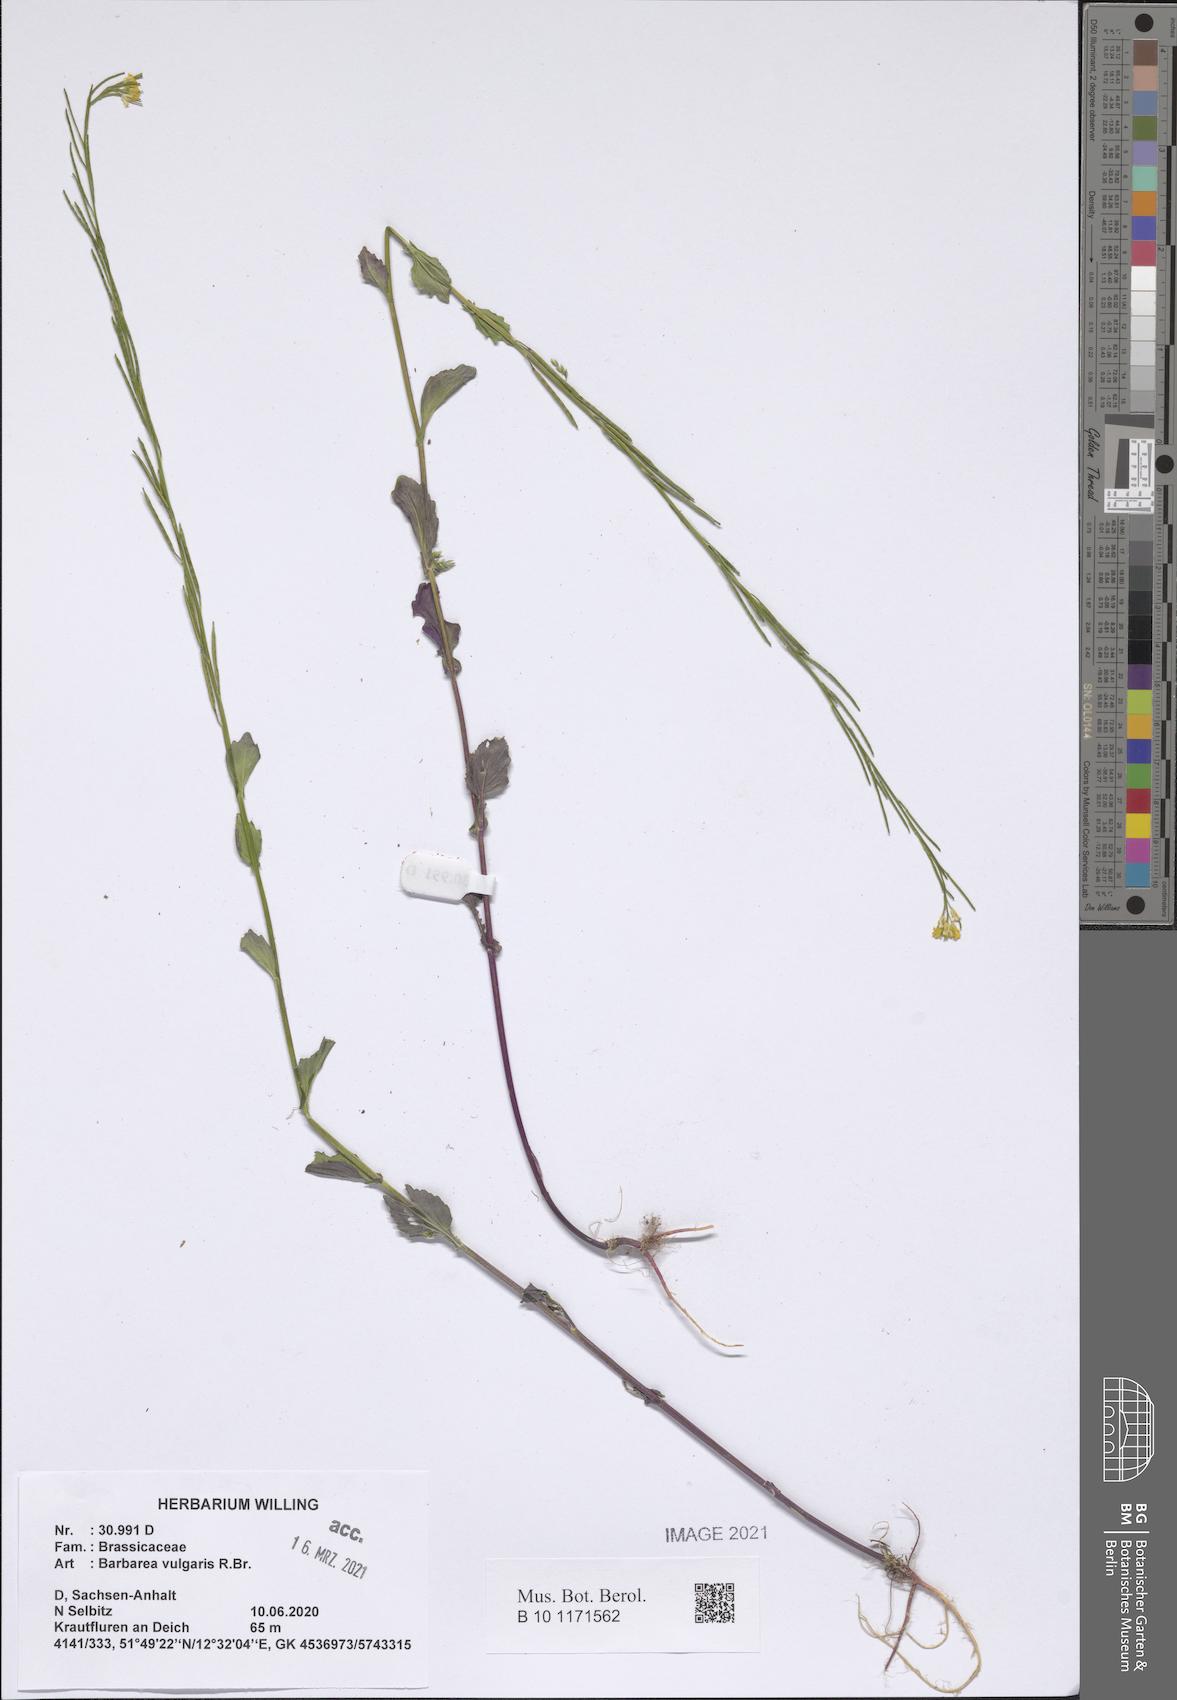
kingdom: Plantae
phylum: Tracheophyta
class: Magnoliopsida
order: Brassicales
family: Brassicaceae
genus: Barbarea
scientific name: Barbarea vulgaris
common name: Cressy-greens
